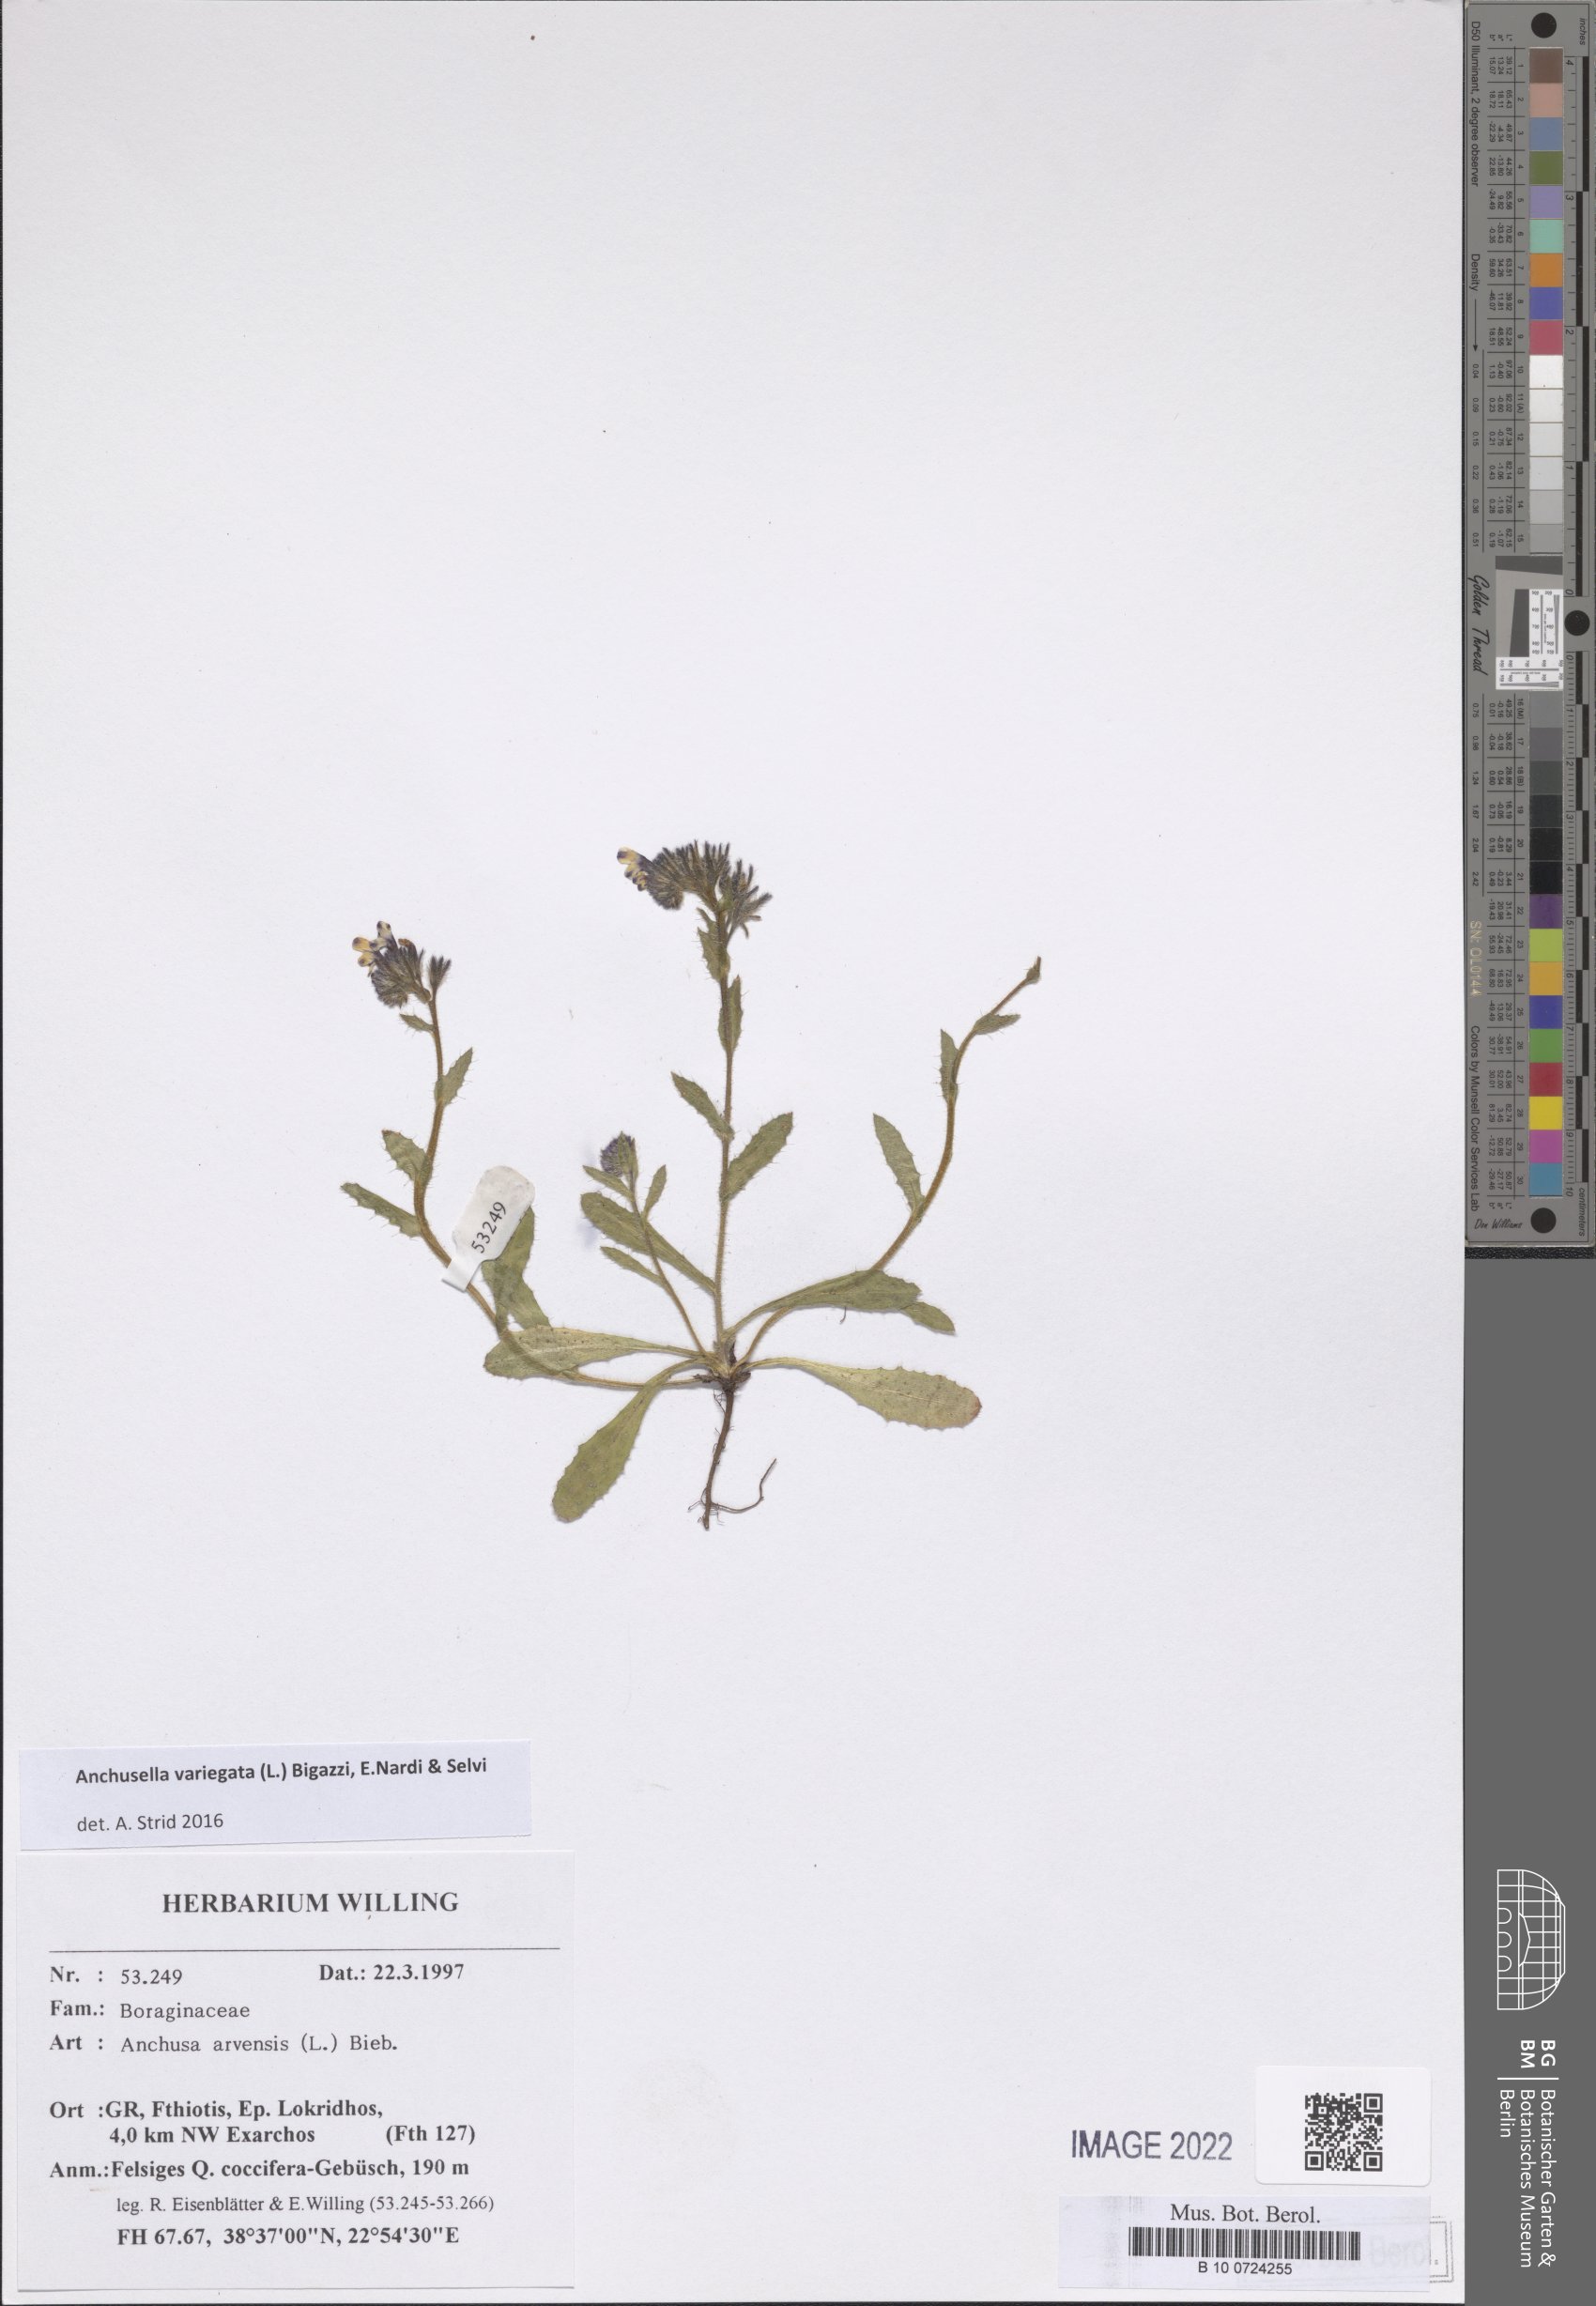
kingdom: Plantae
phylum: Tracheophyta
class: Magnoliopsida
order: Boraginales
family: Boraginaceae
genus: Anchusella
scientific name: Anchusella variegata
